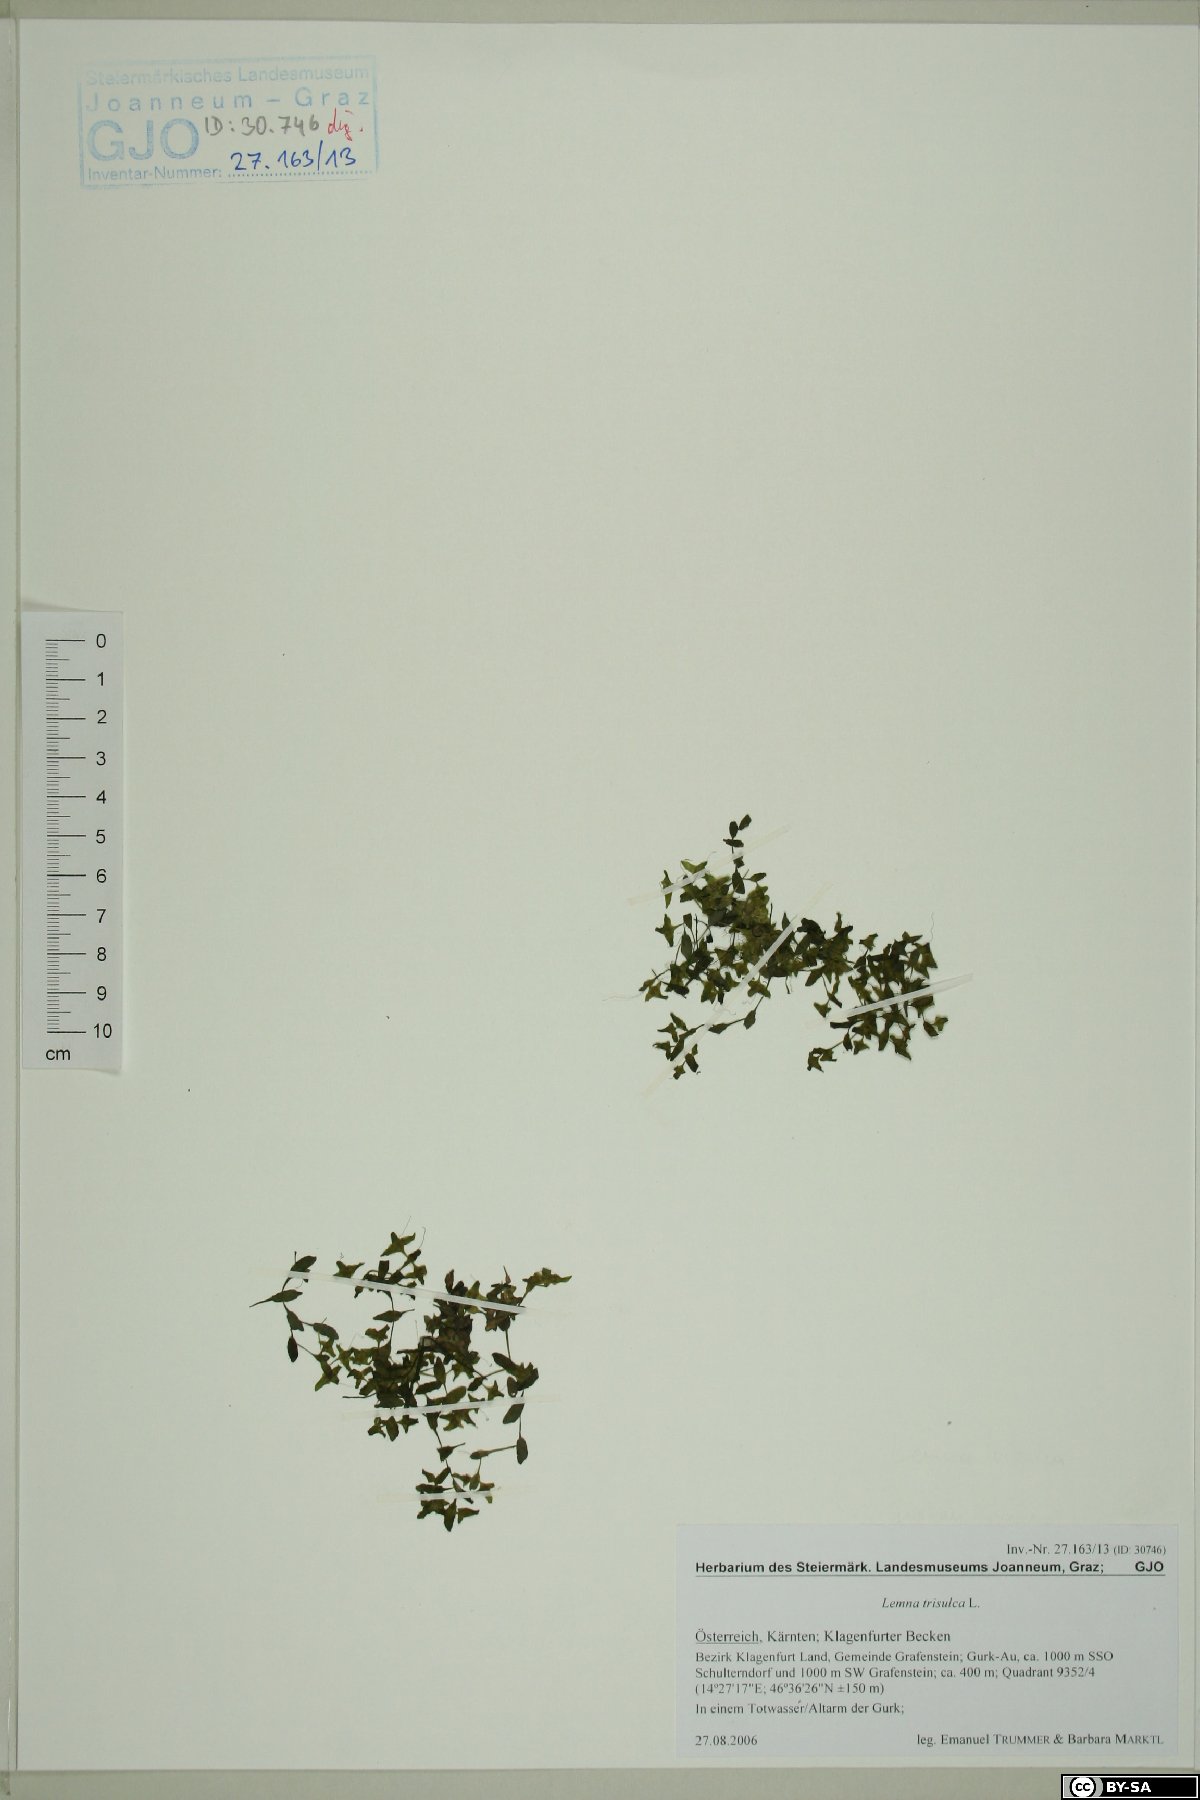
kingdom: Plantae
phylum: Tracheophyta
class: Liliopsida
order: Alismatales
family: Araceae
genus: Lemna
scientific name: Lemna trisulca
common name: Ivy-leaved duckweed
